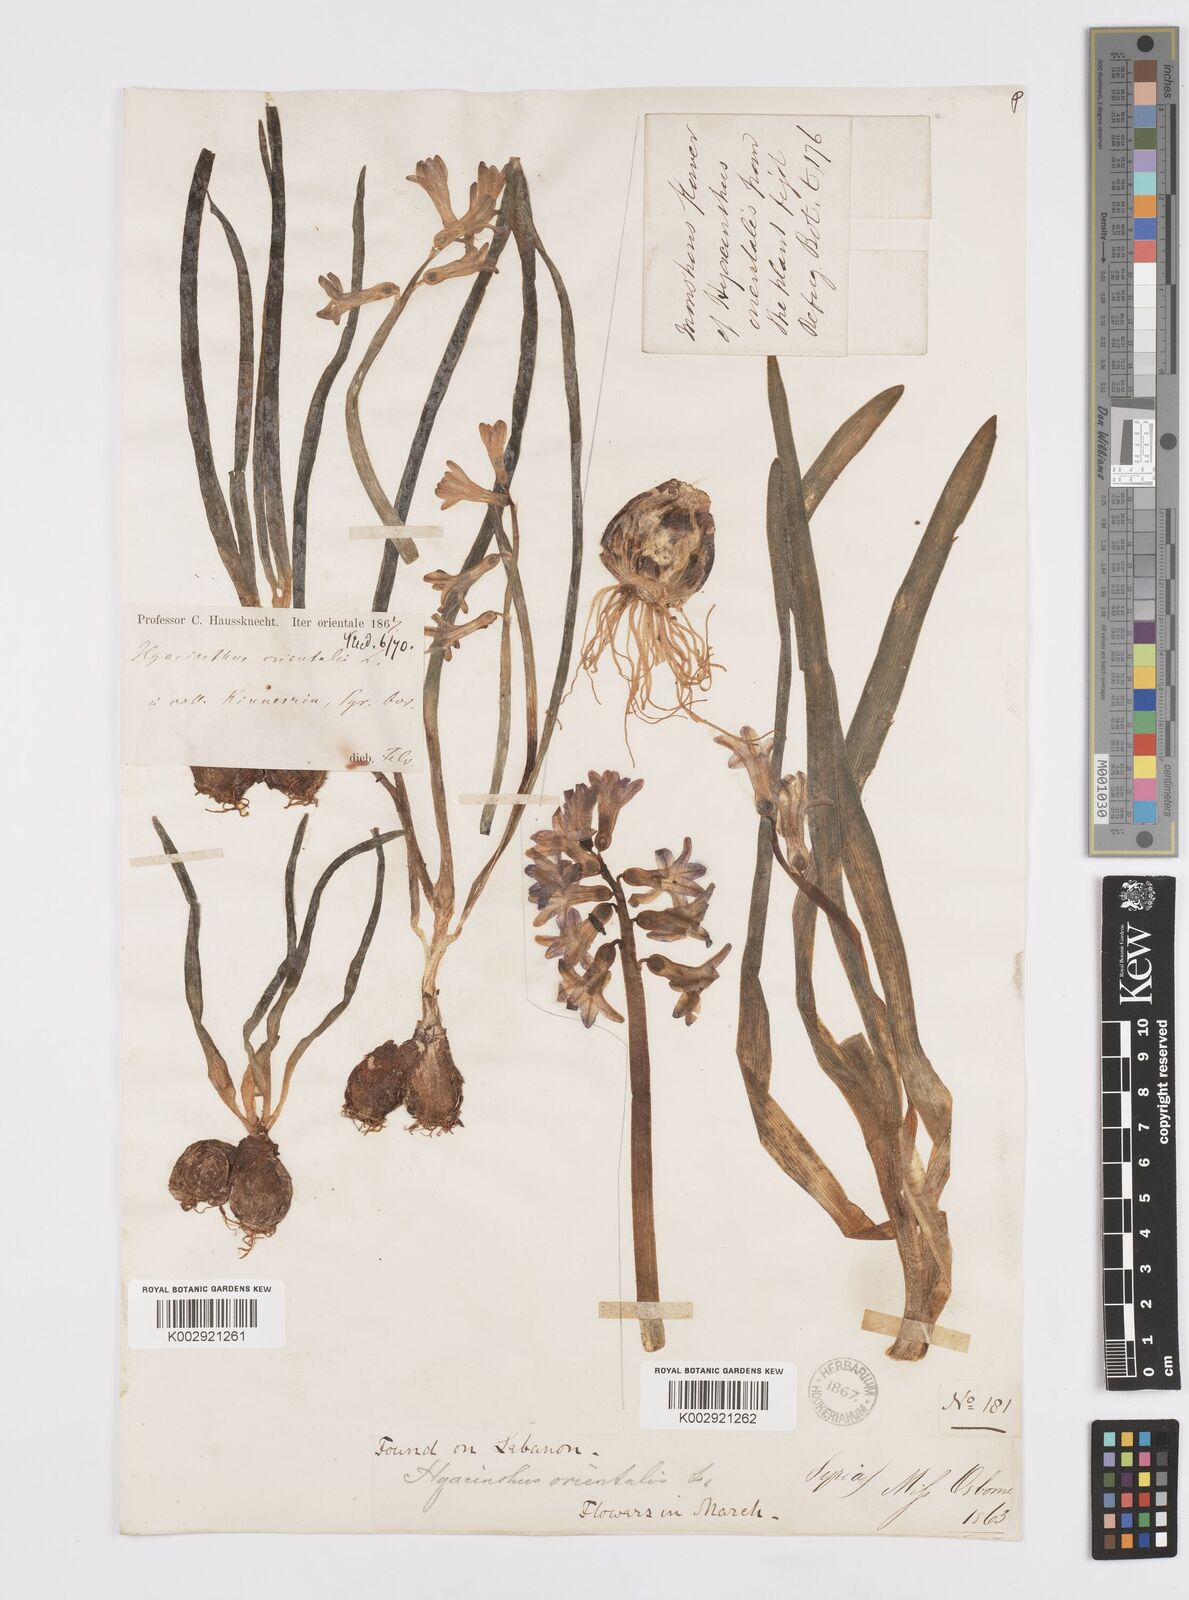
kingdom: Plantae
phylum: Tracheophyta
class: Liliopsida
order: Asparagales
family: Asparagaceae
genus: Hyacinthus
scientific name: Hyacinthus orientalis
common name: Hyacinth
